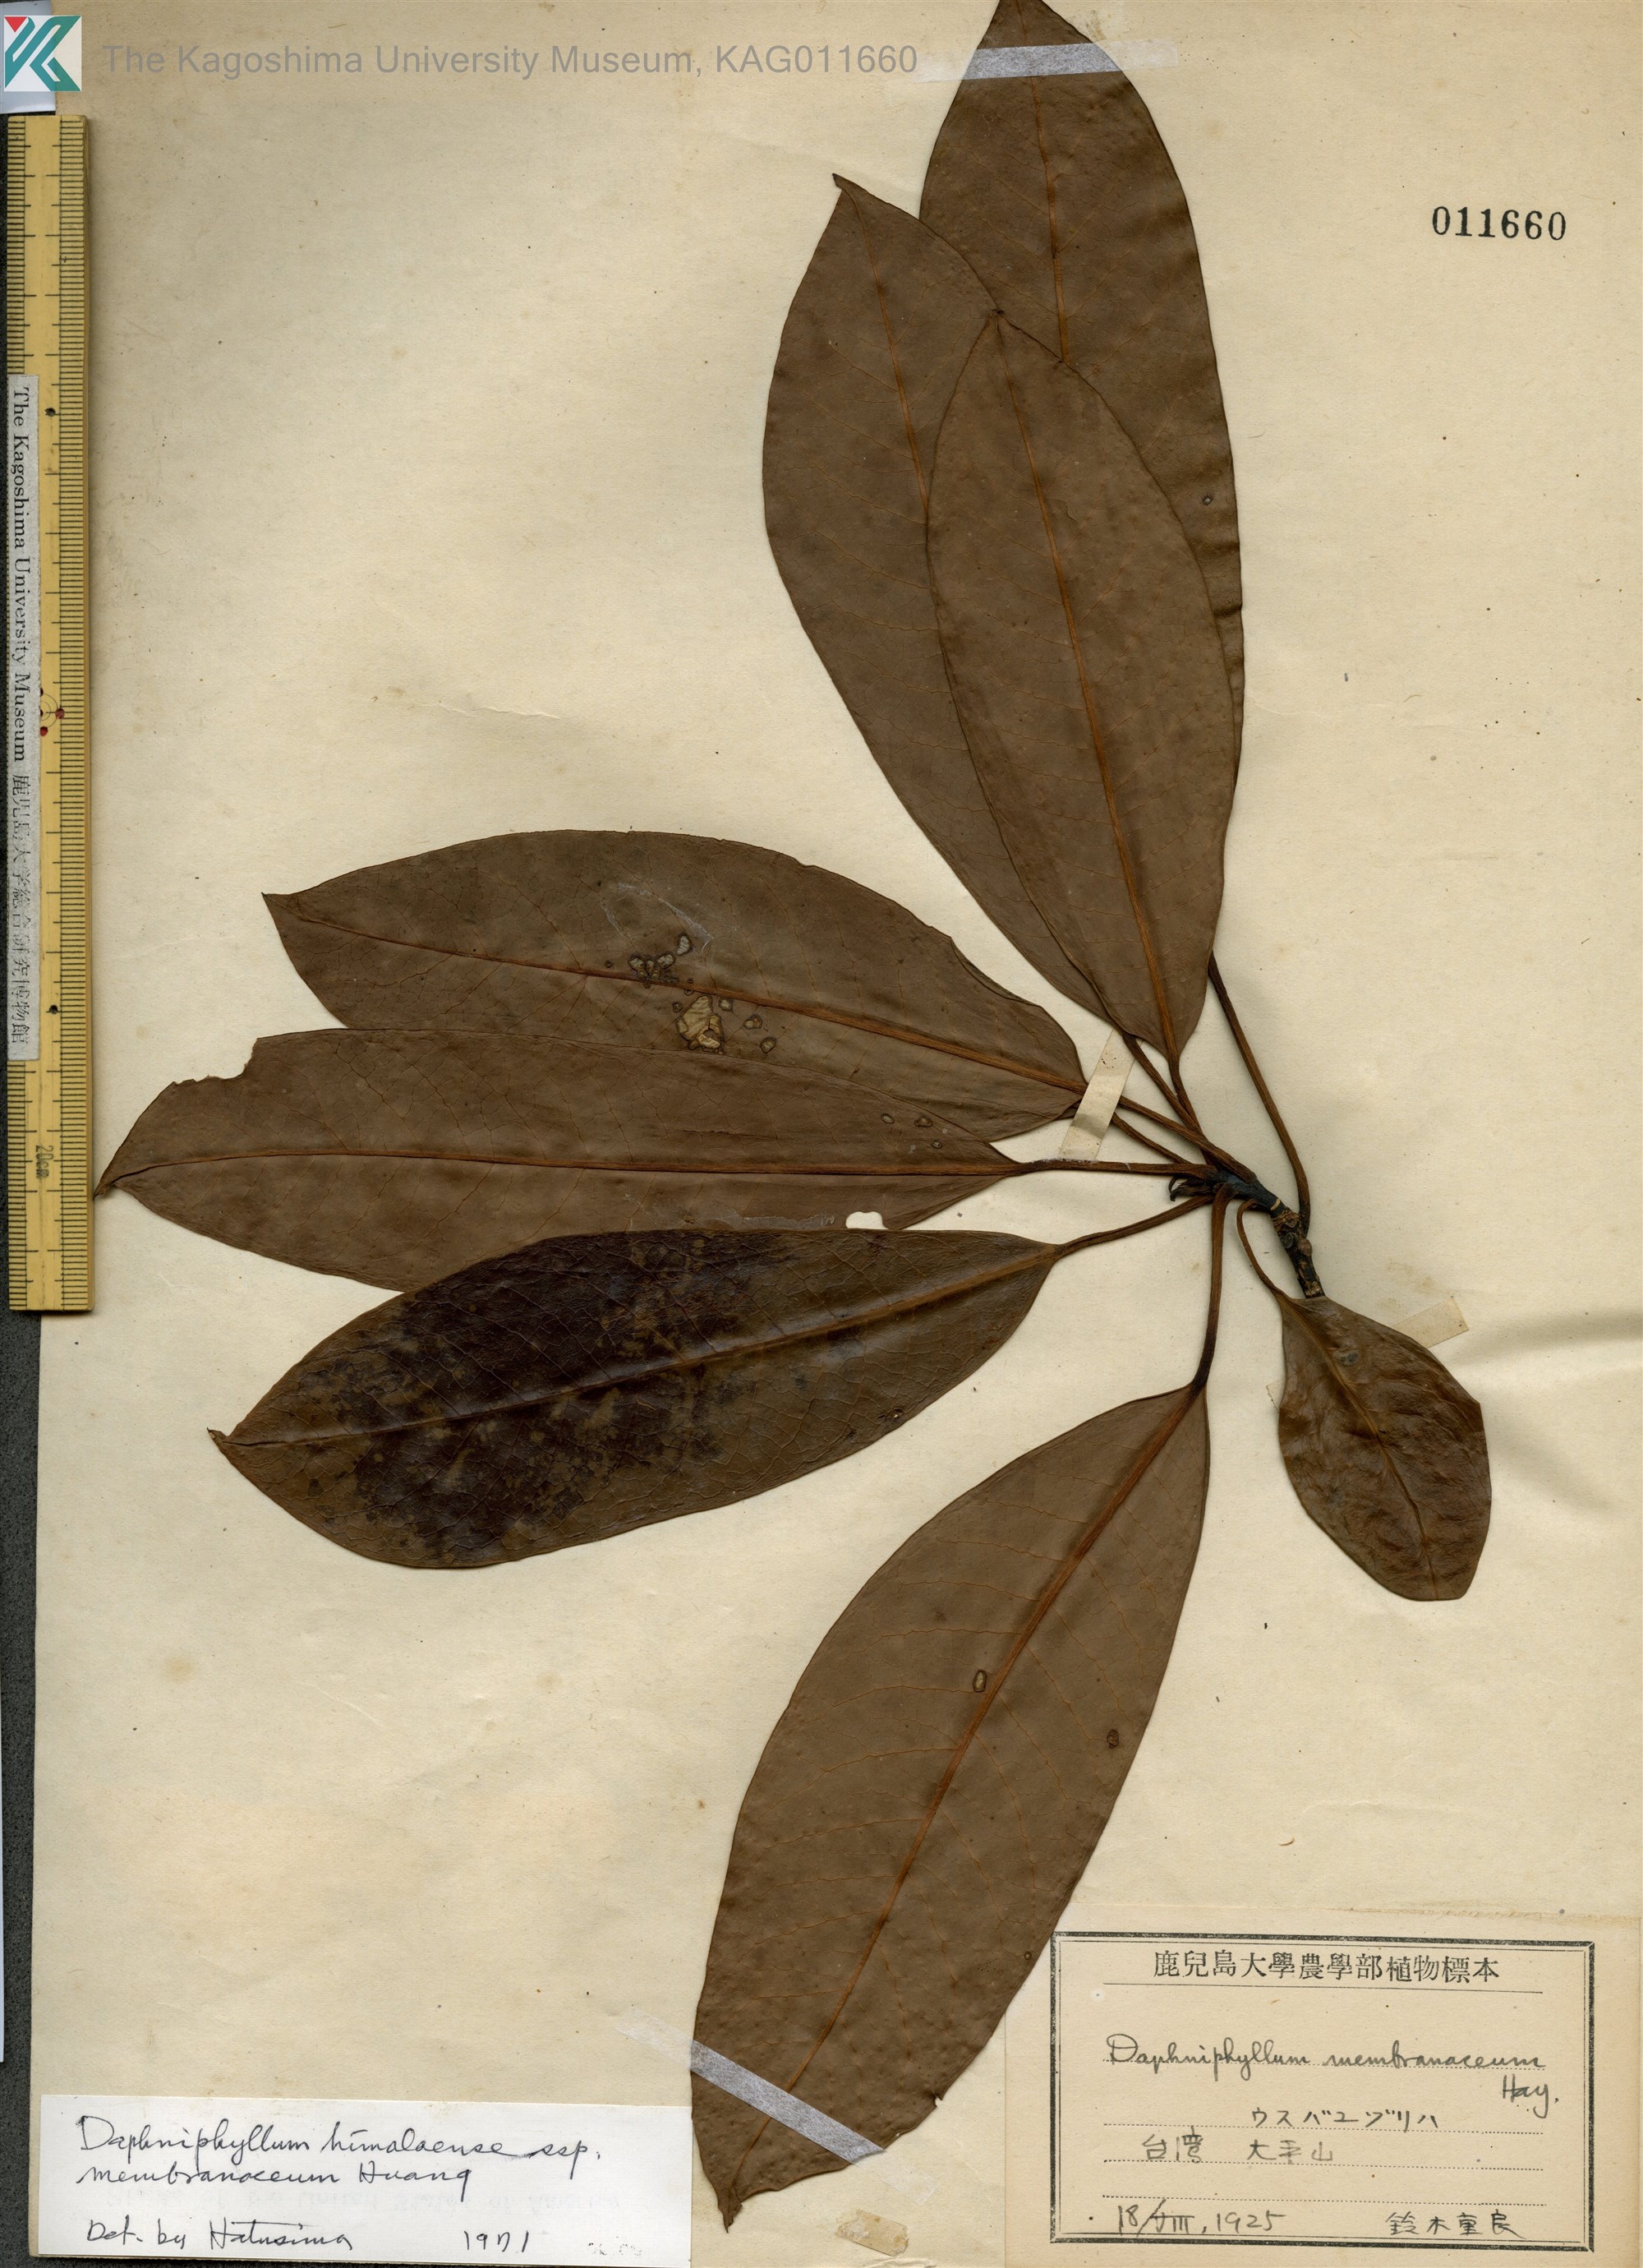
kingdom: Plantae
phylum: Tracheophyta
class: Magnoliopsida
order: Saxifragales
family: Daphniphyllaceae
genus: Daphniphyllum
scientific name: Daphniphyllum himalayense
